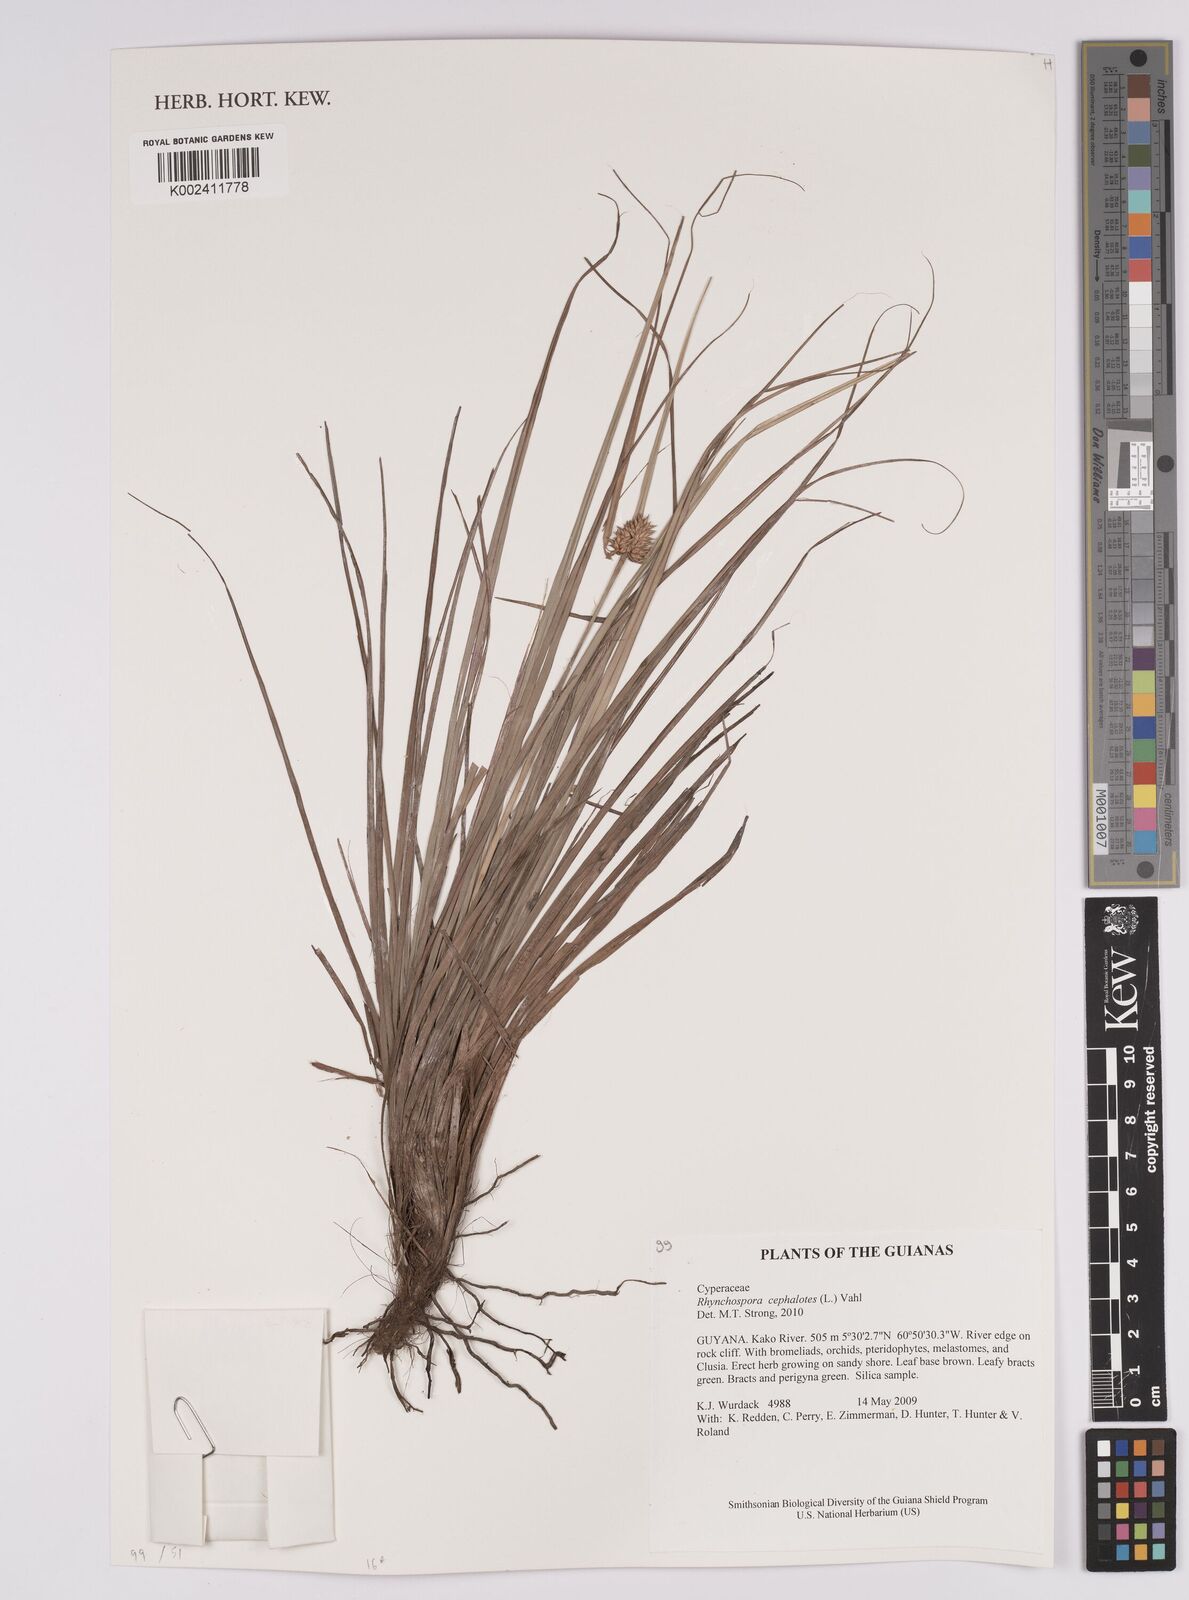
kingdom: Plantae
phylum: Tracheophyta
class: Liliopsida
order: Poales
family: Cyperaceae
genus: Rhynchospora
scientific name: Rhynchospora cephalotes
